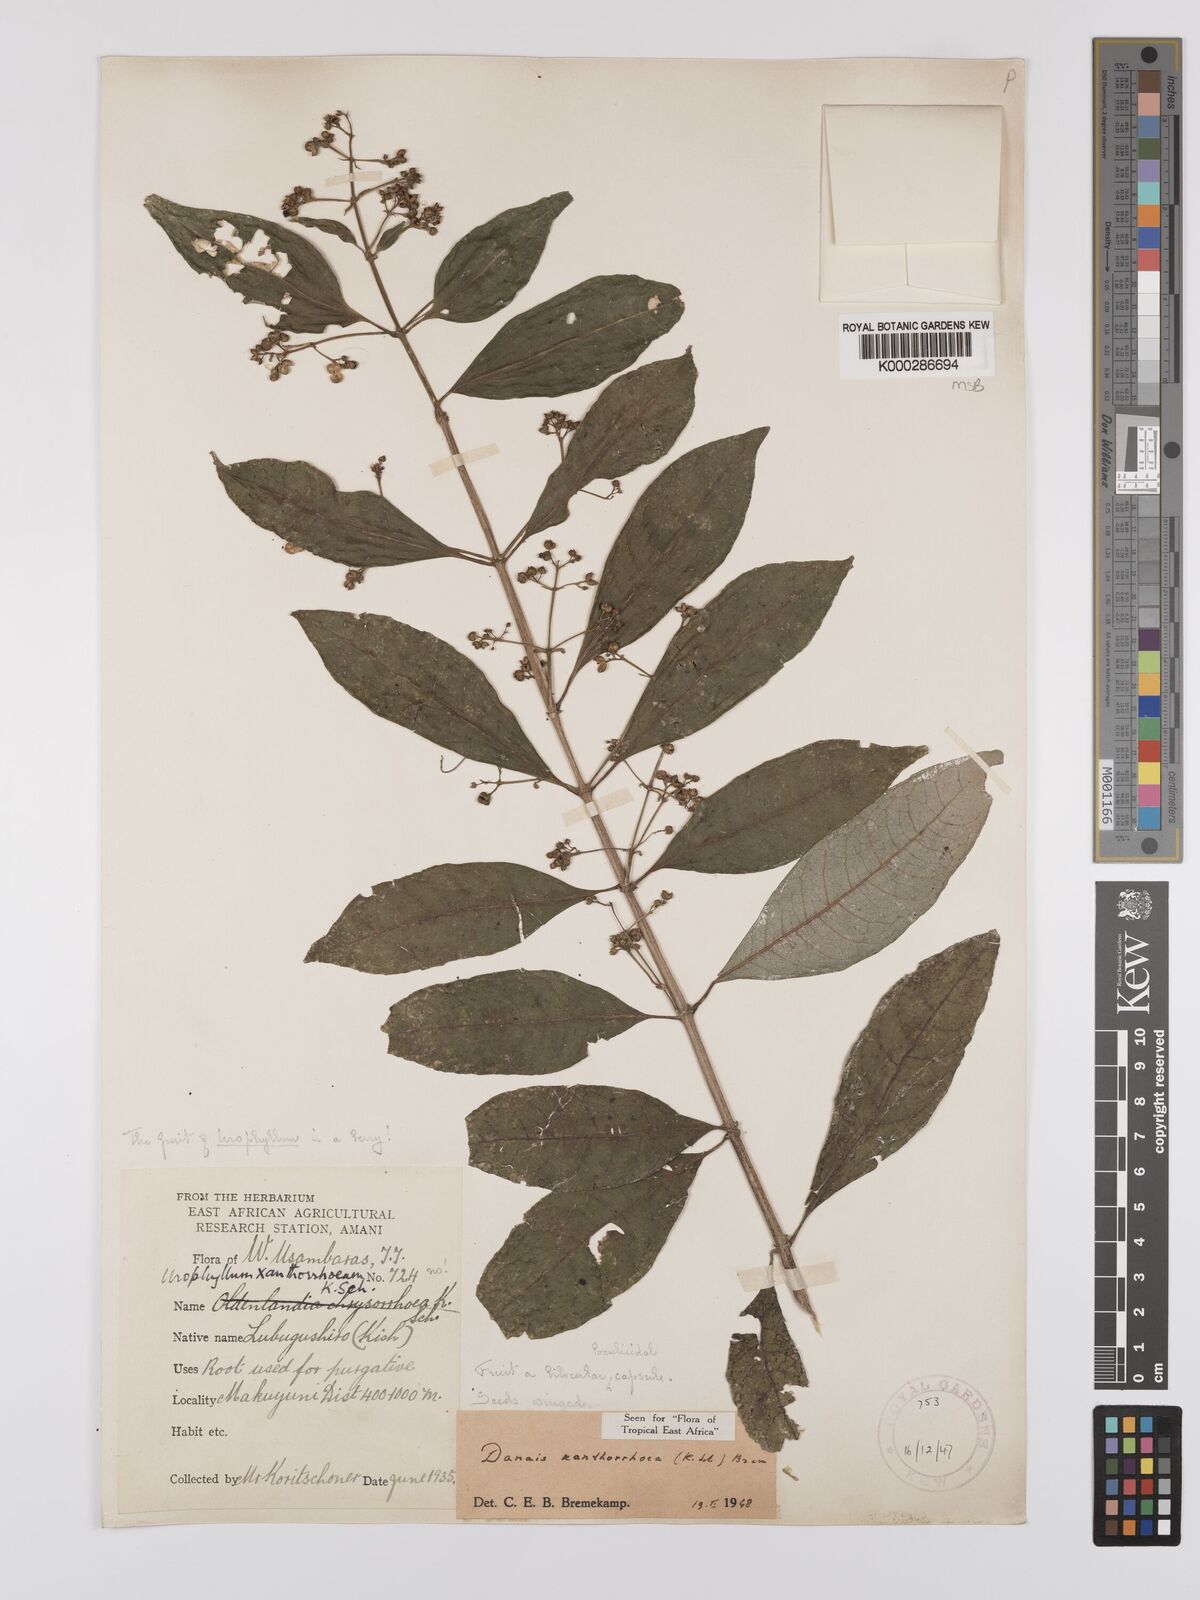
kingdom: Plantae
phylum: Tracheophyta
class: Magnoliopsida
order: Gentianales
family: Rubiaceae
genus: Danais
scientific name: Danais xanthorrhoea
